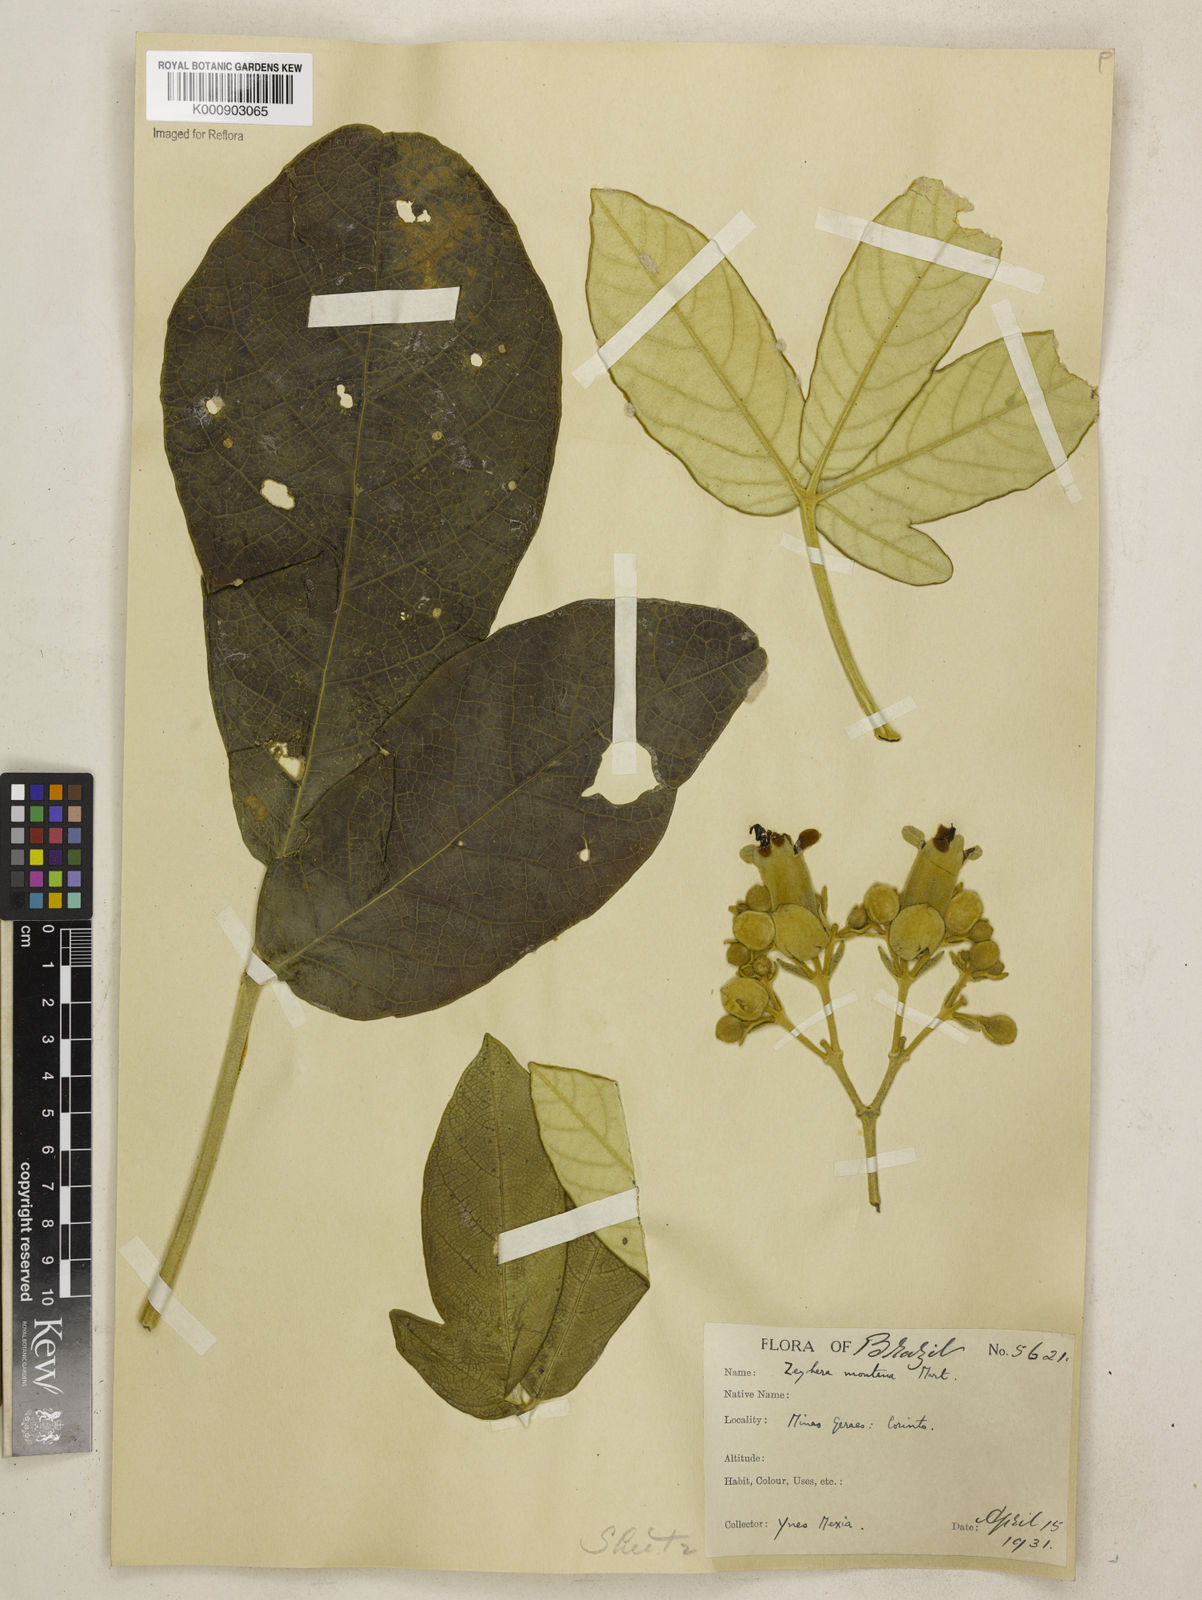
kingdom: Plantae
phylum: Tracheophyta
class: Magnoliopsida
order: Lamiales
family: Bignoniaceae
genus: Zeyheria
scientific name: Zeyheria
